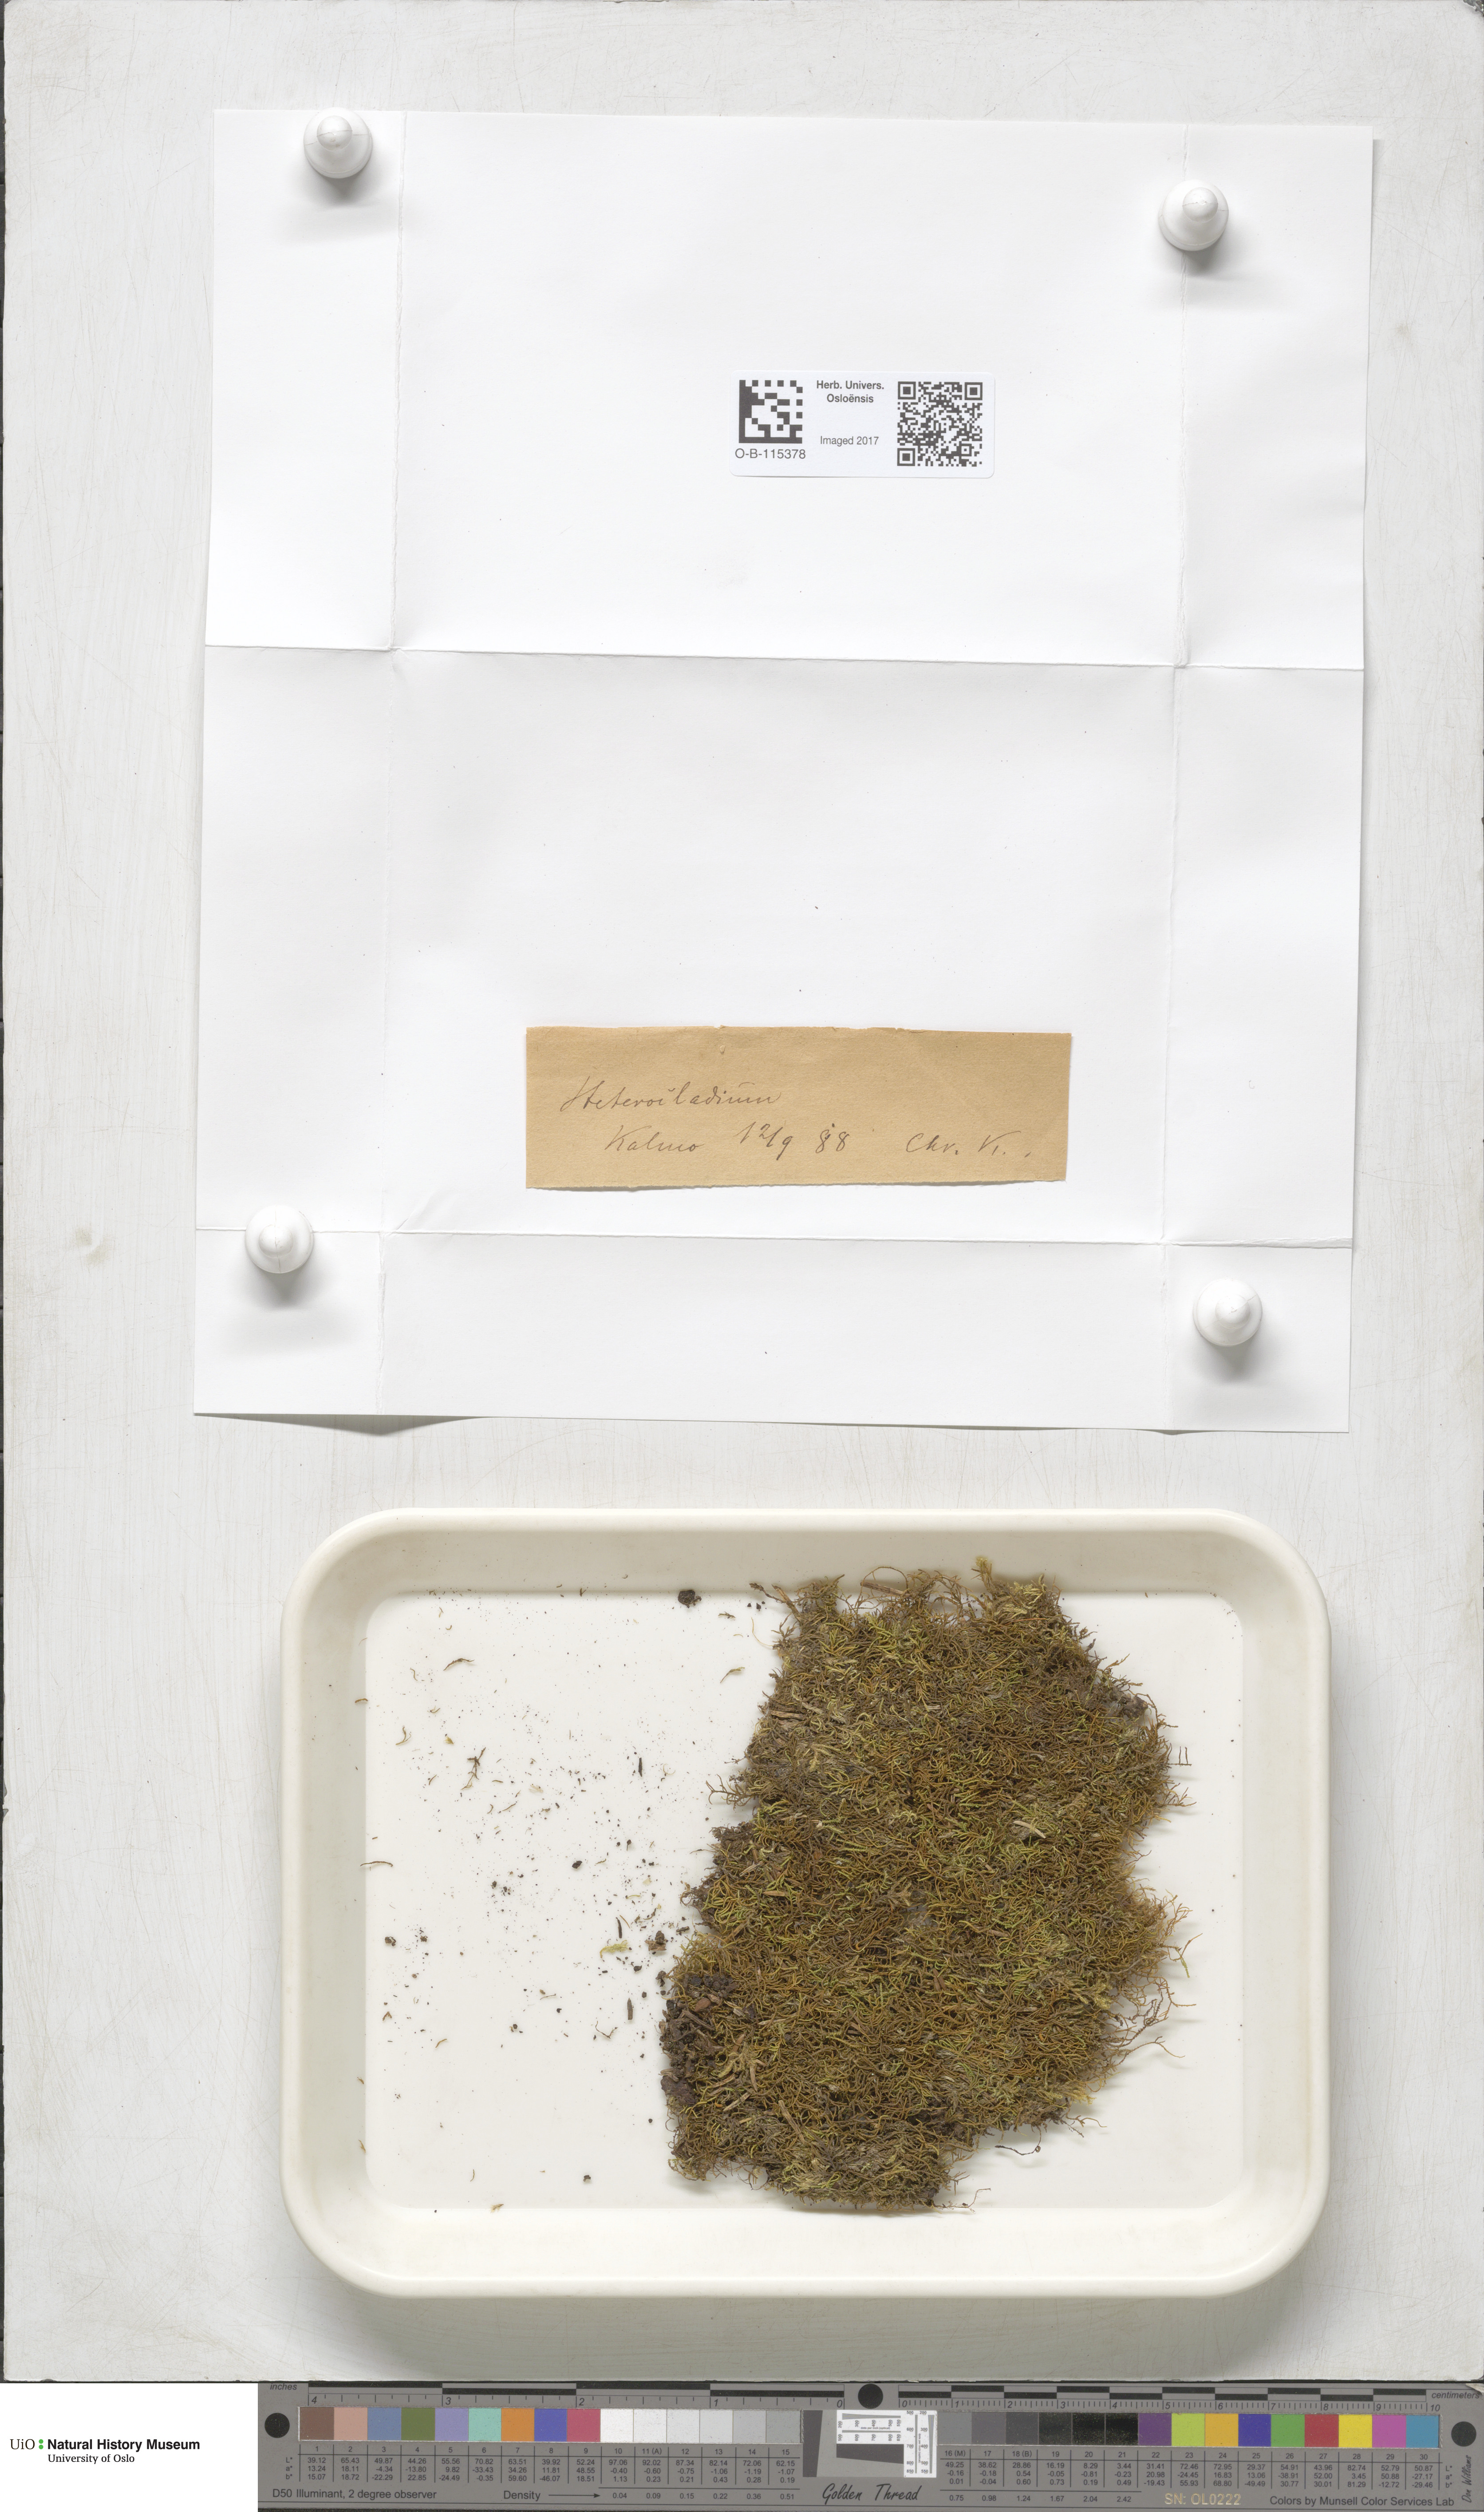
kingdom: Plantae
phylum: Bryophyta
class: Bryopsida
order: Hypnales
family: Heterocladiellaceae
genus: Heterocladiella
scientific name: Heterocladiella dimorpha
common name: Dimorphous tamarisk-moss
